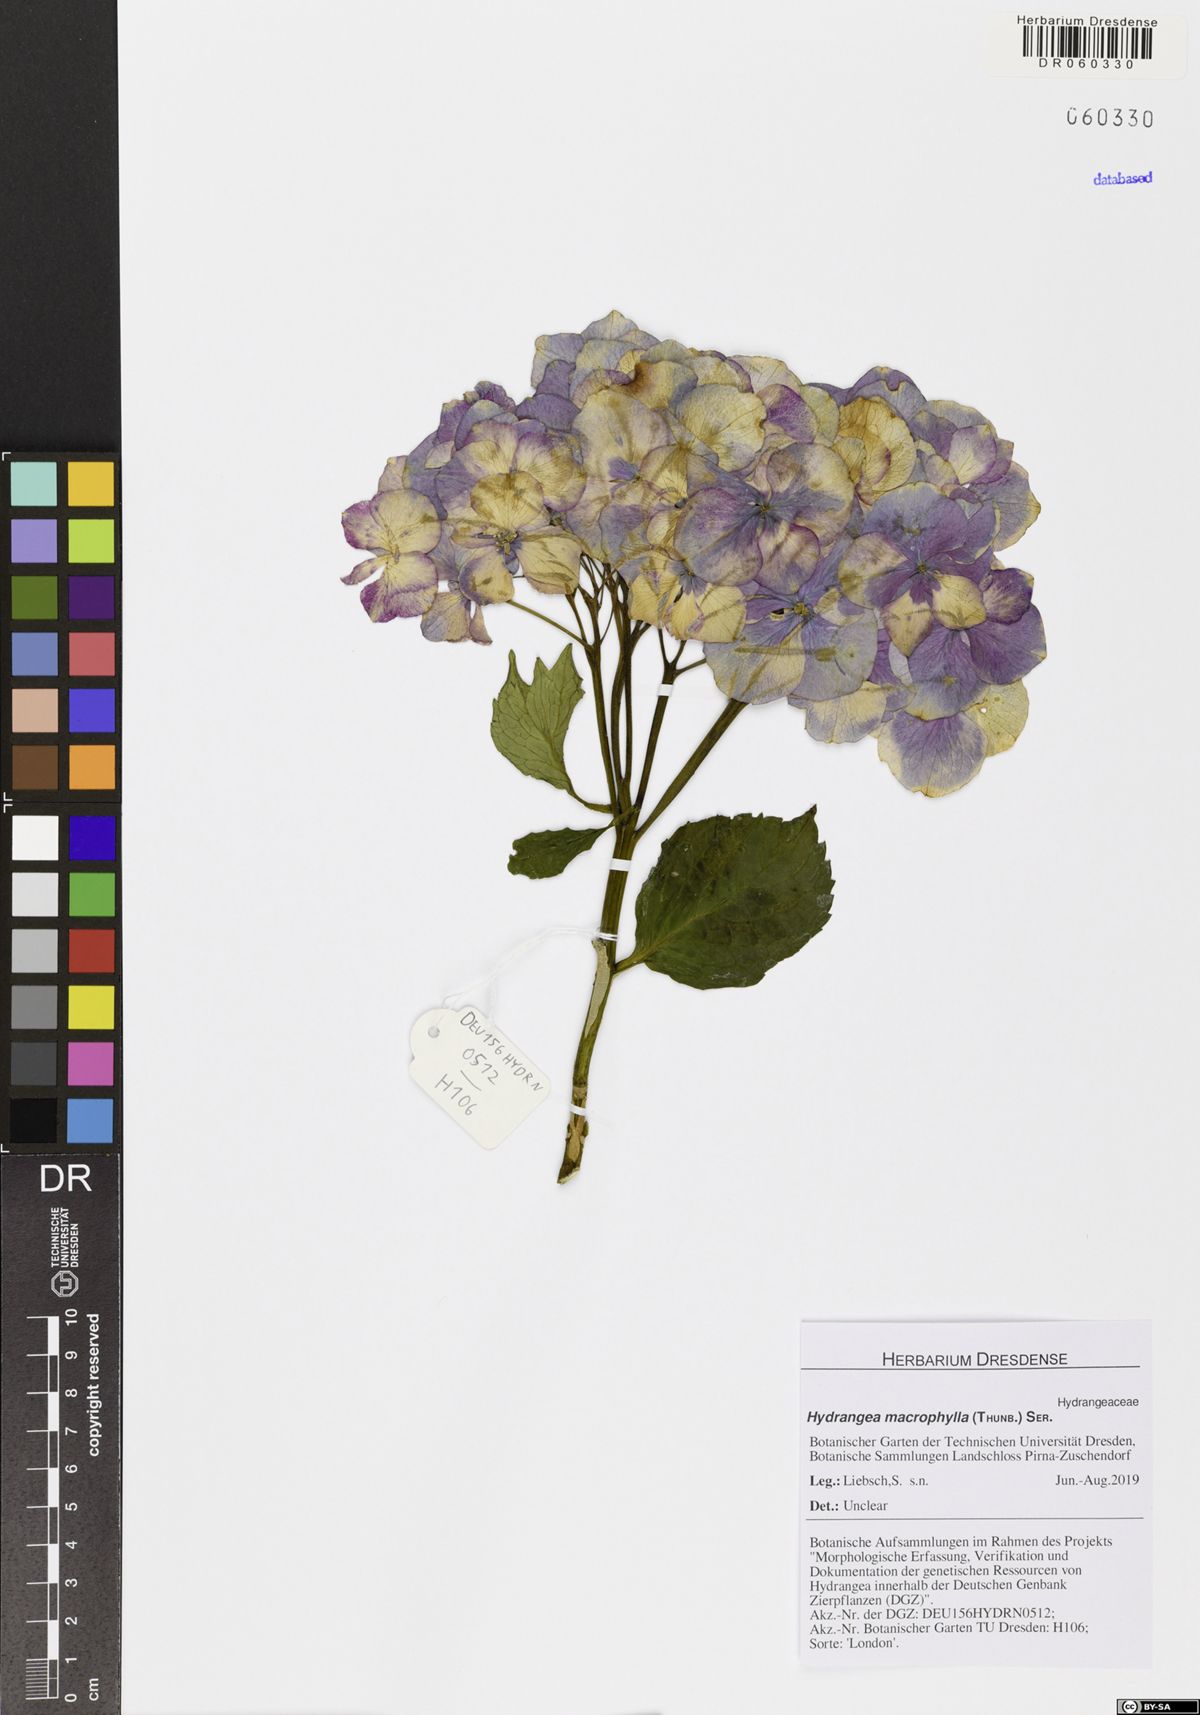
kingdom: Plantae
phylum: Tracheophyta
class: Magnoliopsida
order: Cornales
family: Hydrangeaceae
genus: Hydrangea
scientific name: Hydrangea macrophylla
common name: Hydrangea
